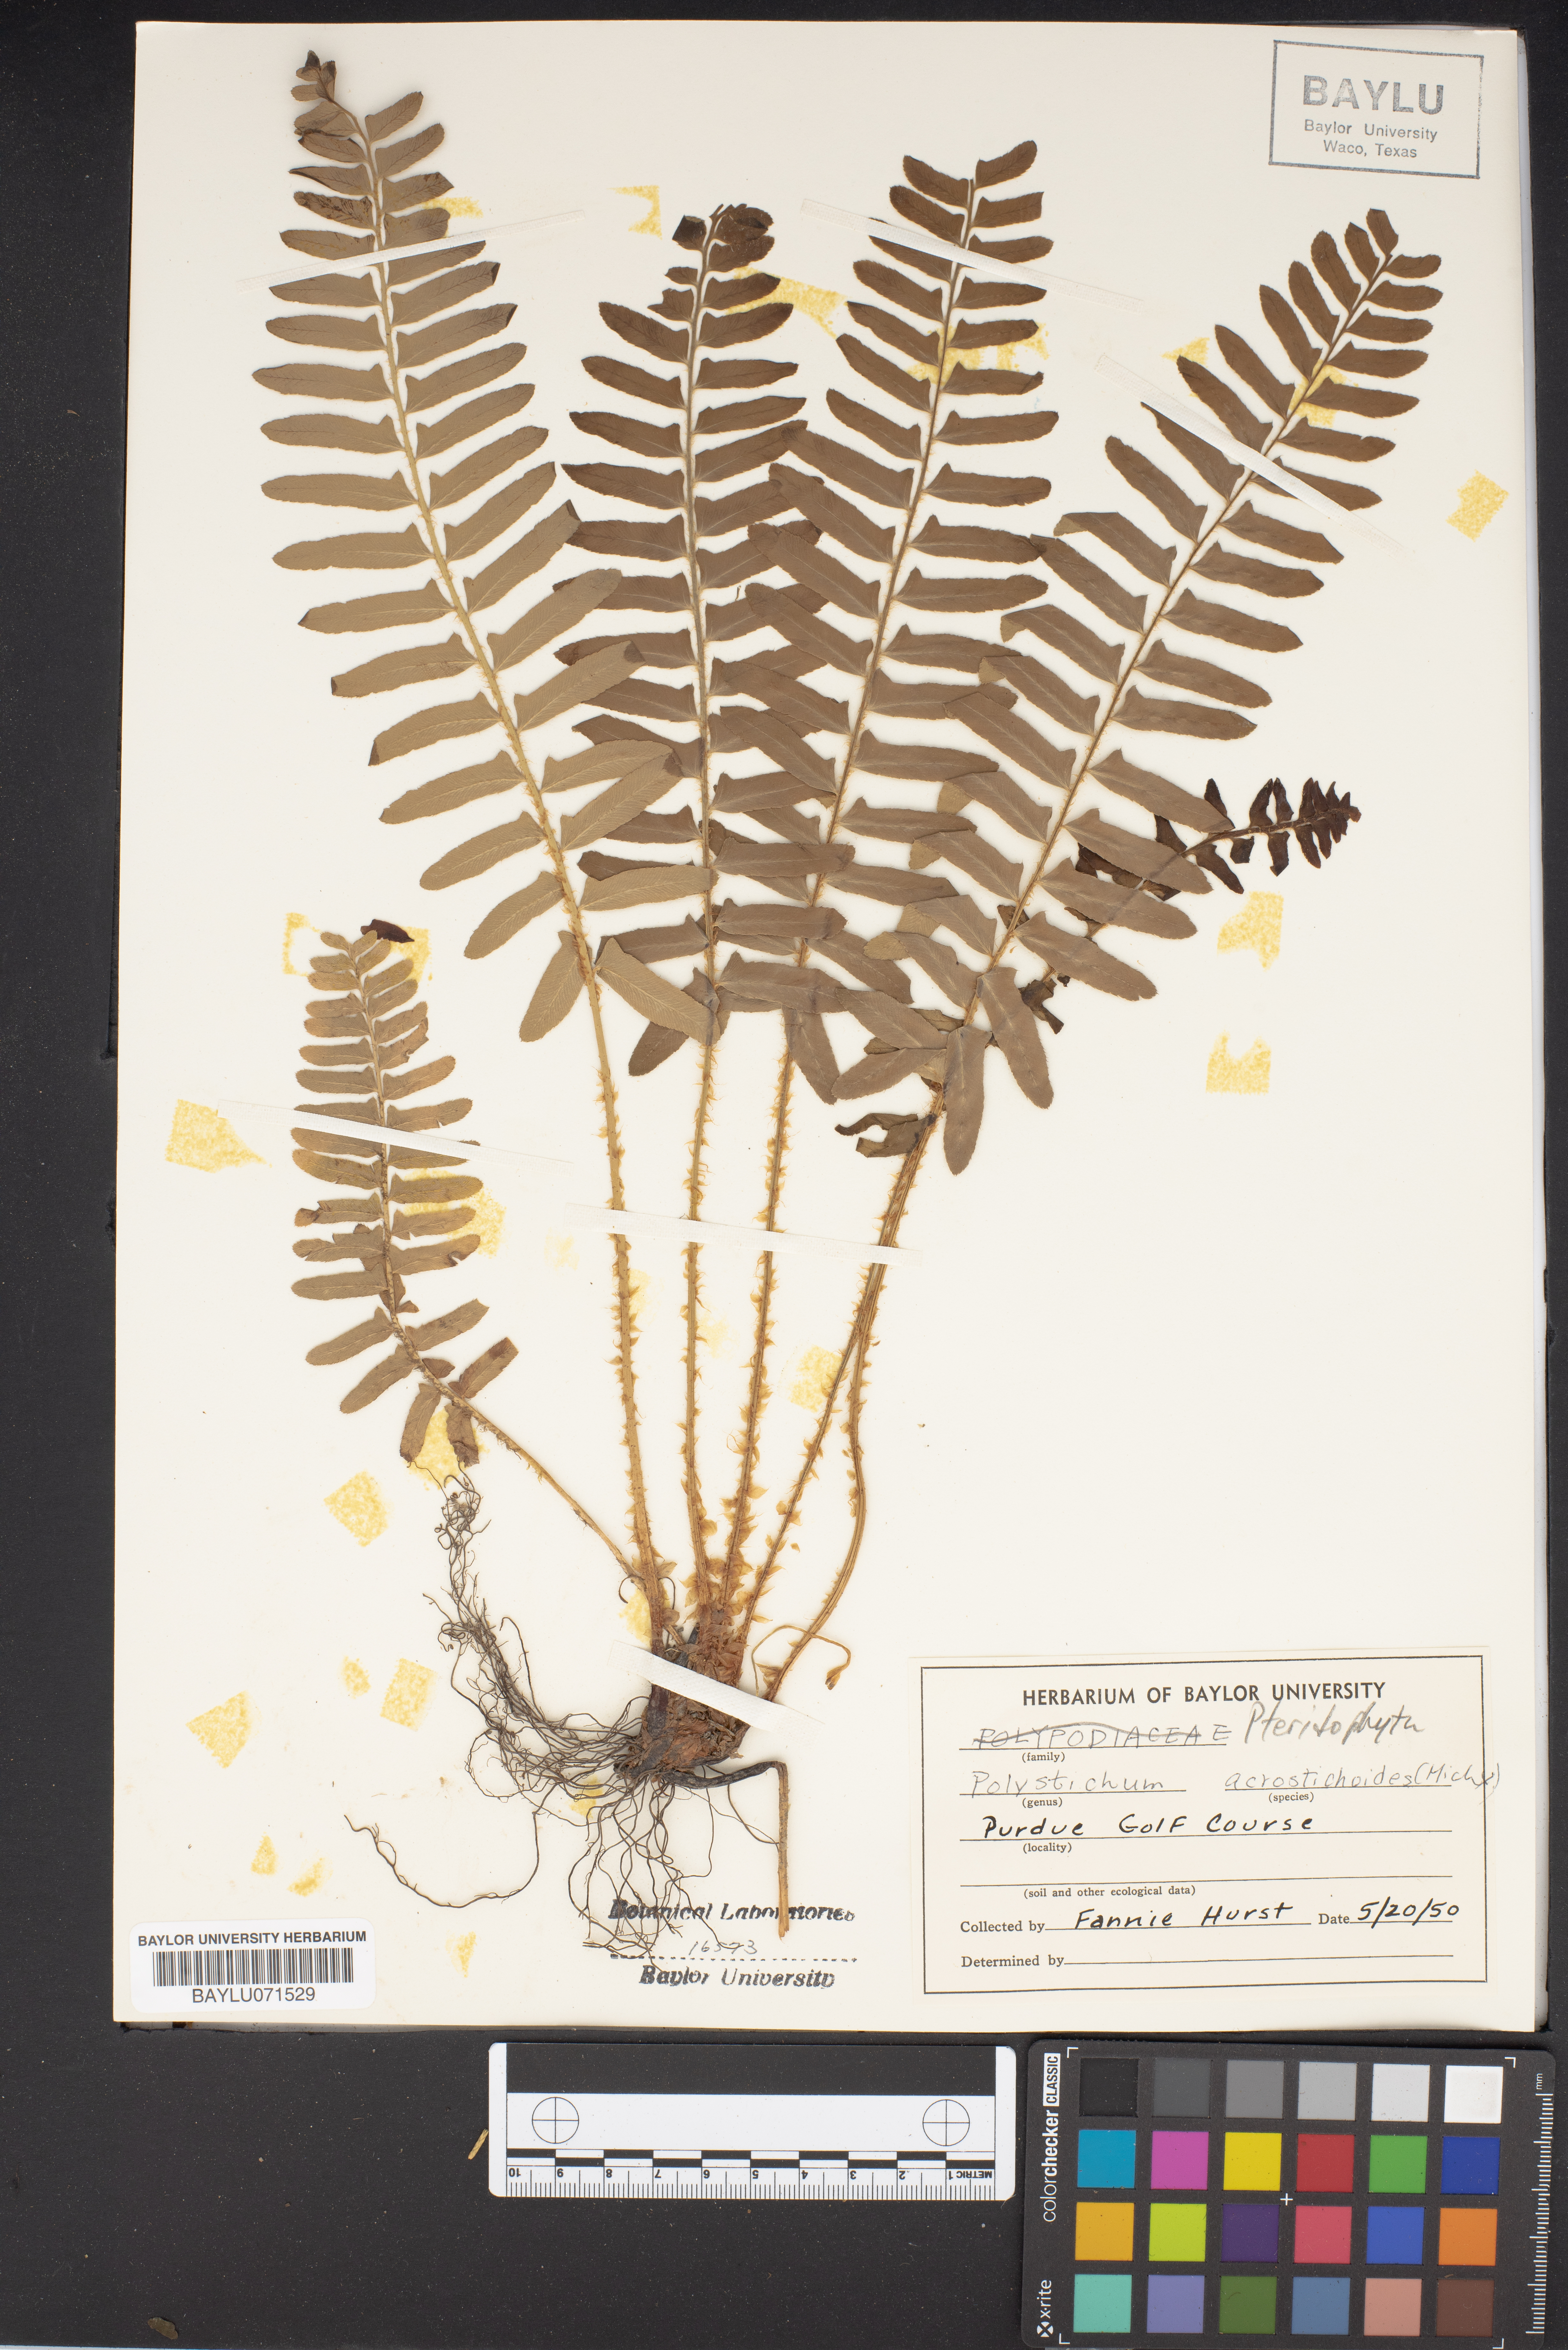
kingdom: Plantae
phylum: Tracheophyta
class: Polypodiopsida
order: Polypodiales
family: Dryopteridaceae
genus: Polystichum
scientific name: Polystichum acrostichoides
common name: Christmas fern
